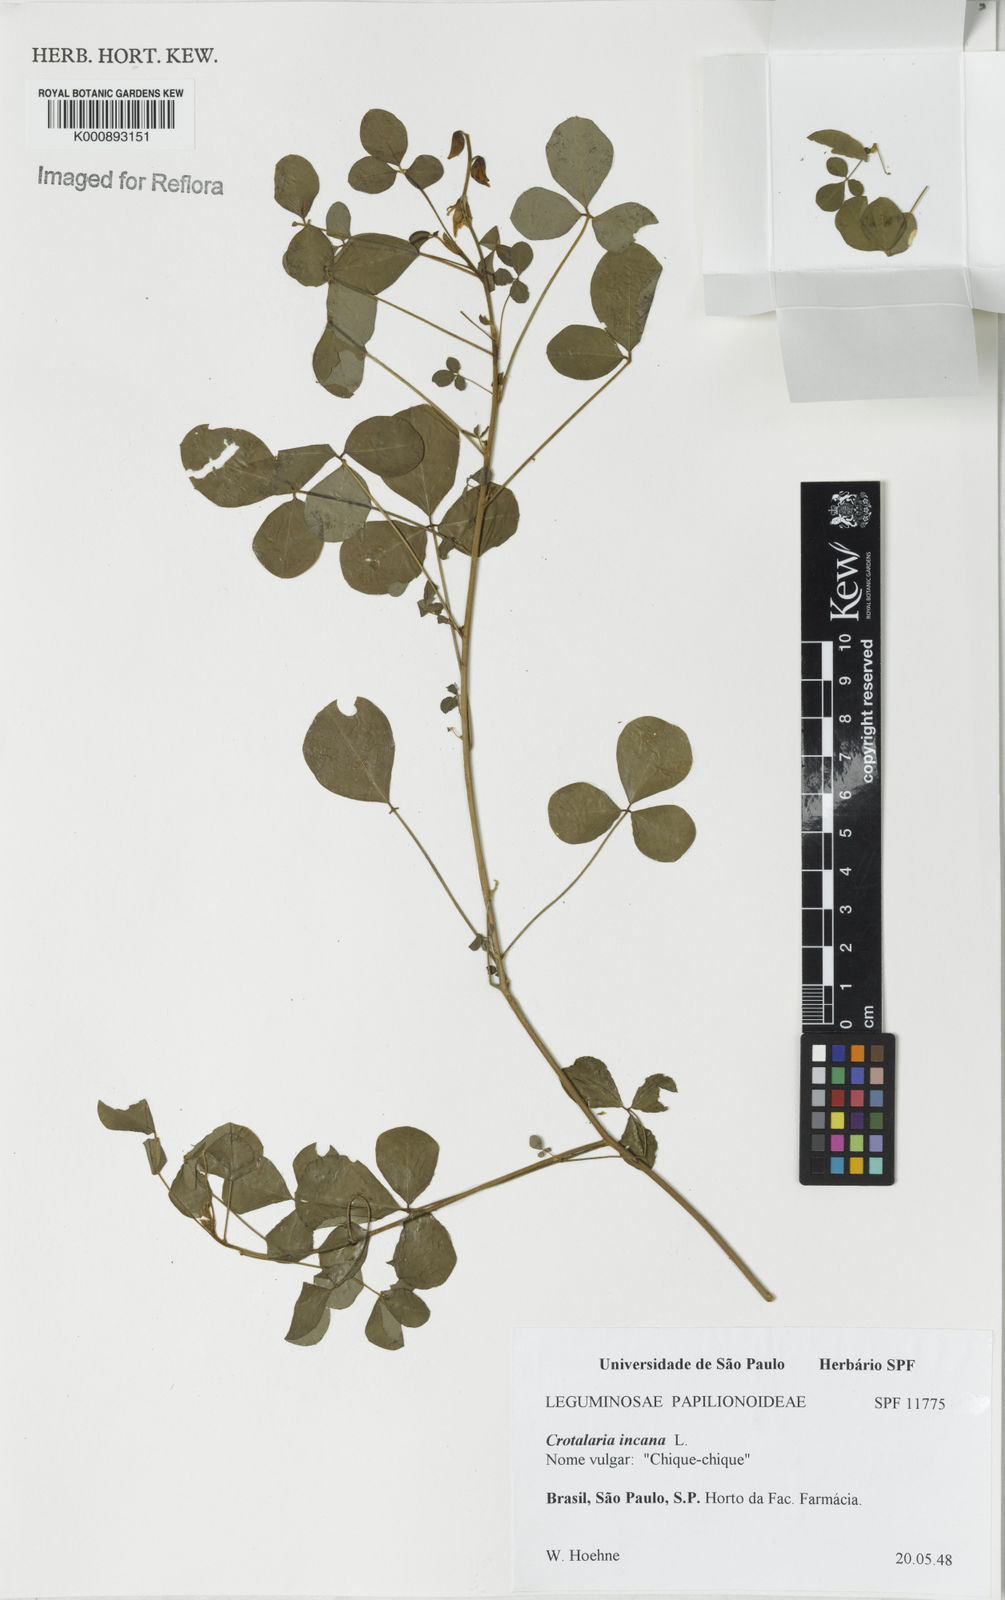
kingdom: Plantae
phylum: Tracheophyta
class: Magnoliopsida
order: Fabales
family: Fabaceae
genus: Crotalaria
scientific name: Crotalaria incana
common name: Shakeshake
